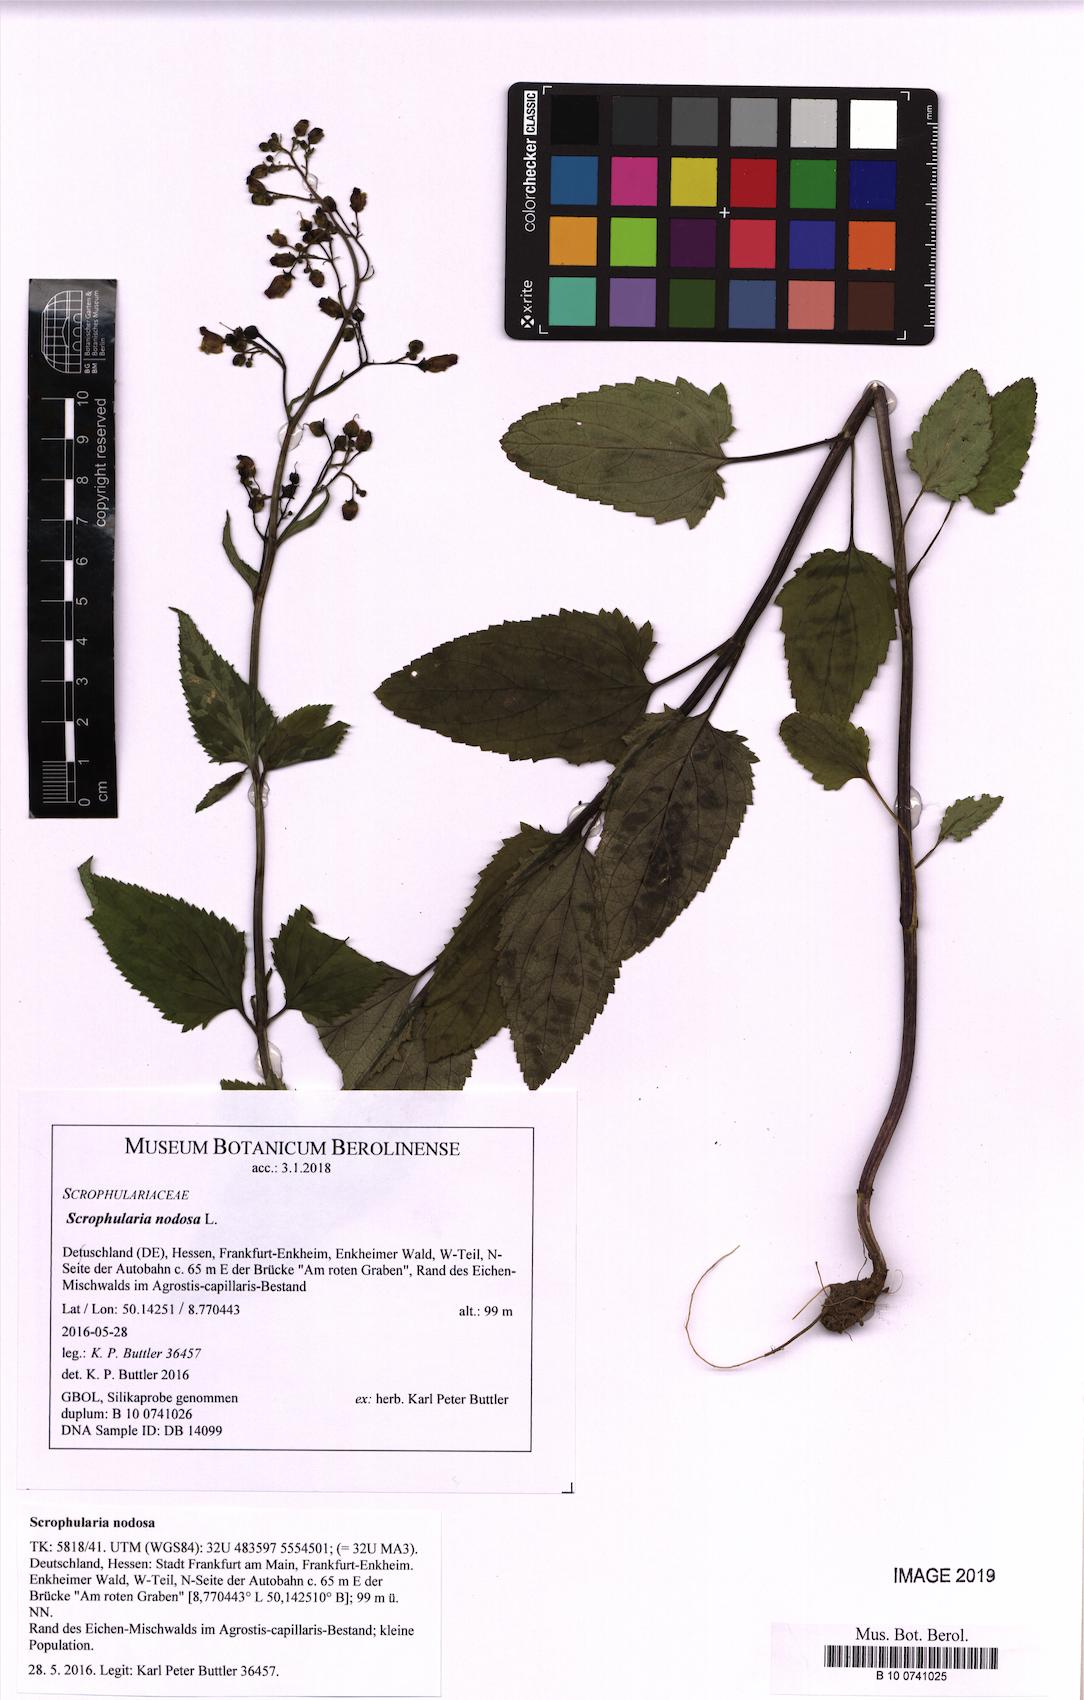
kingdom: Plantae
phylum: Tracheophyta
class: Magnoliopsida
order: Lamiales
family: Scrophulariaceae
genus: Scrophularia
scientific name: Scrophularia nodosa
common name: Common figwort
